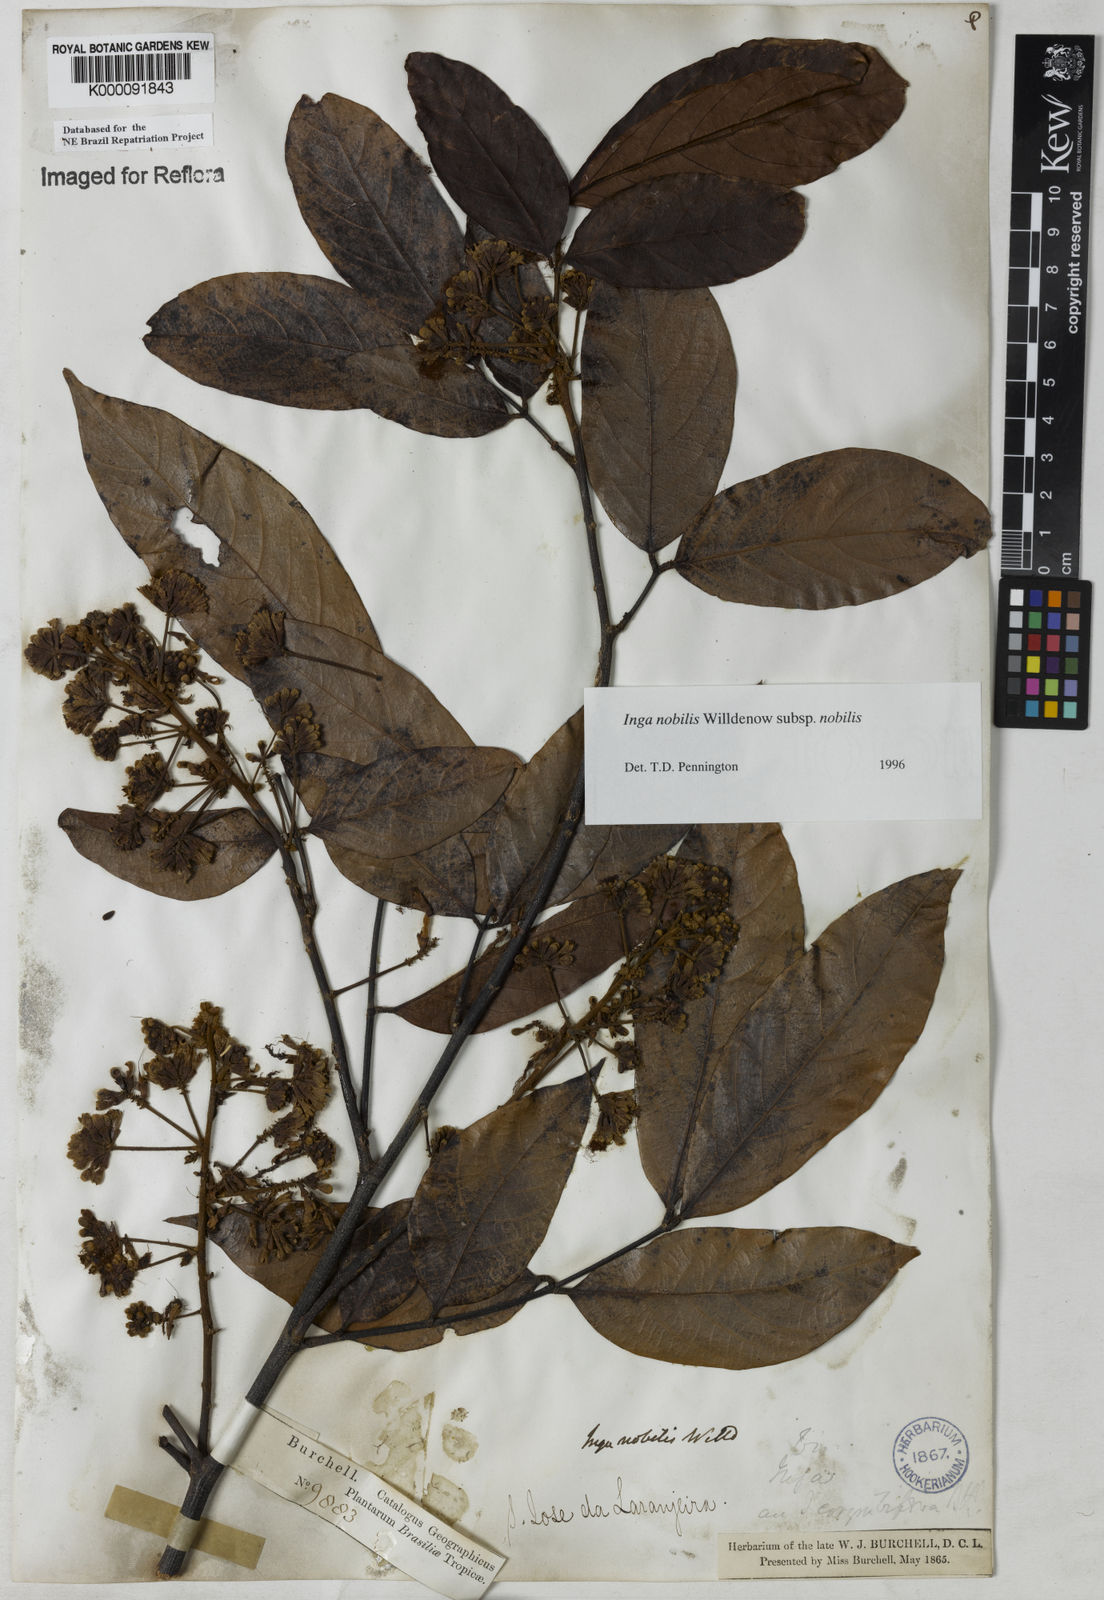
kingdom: Plantae
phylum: Tracheophyta
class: Magnoliopsida
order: Fabales
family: Fabaceae
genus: Inga
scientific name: Inga nobilis
